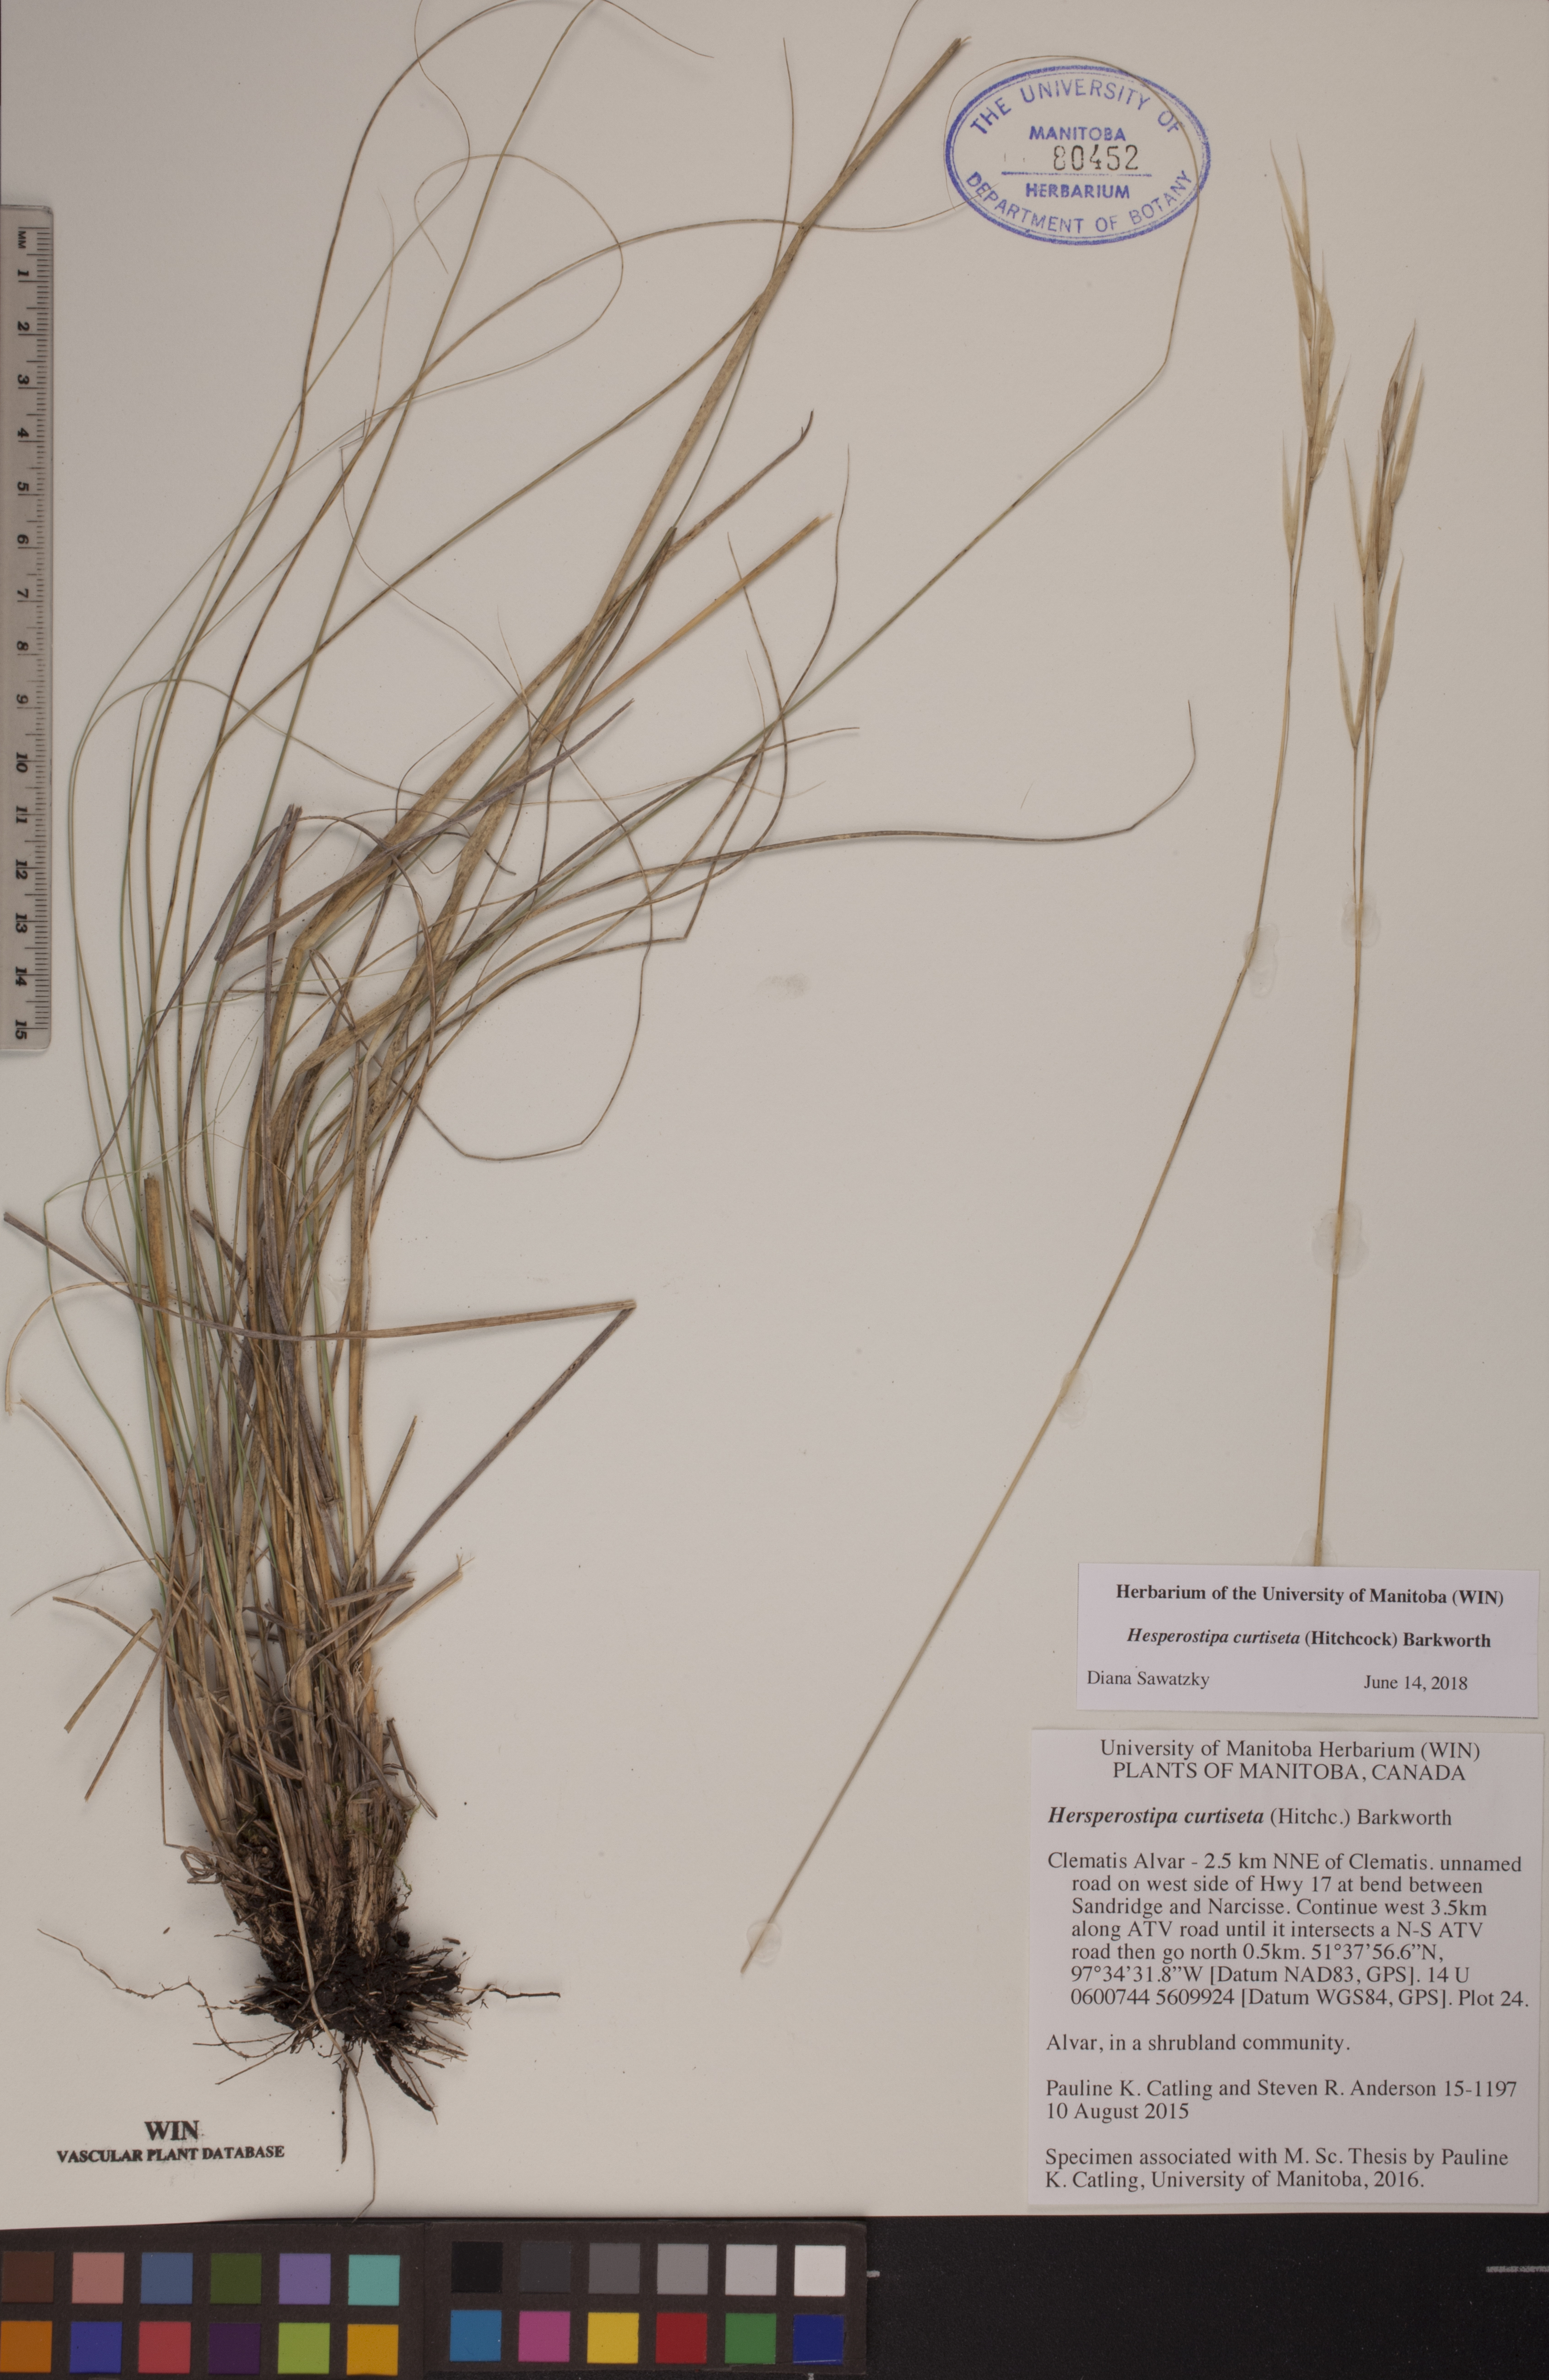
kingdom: Plantae
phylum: Tracheophyta
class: Liliopsida
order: Poales
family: Poaceae
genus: Hesperostipa
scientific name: Hesperostipa curtiseta
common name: Canada needle-and-thread grass
